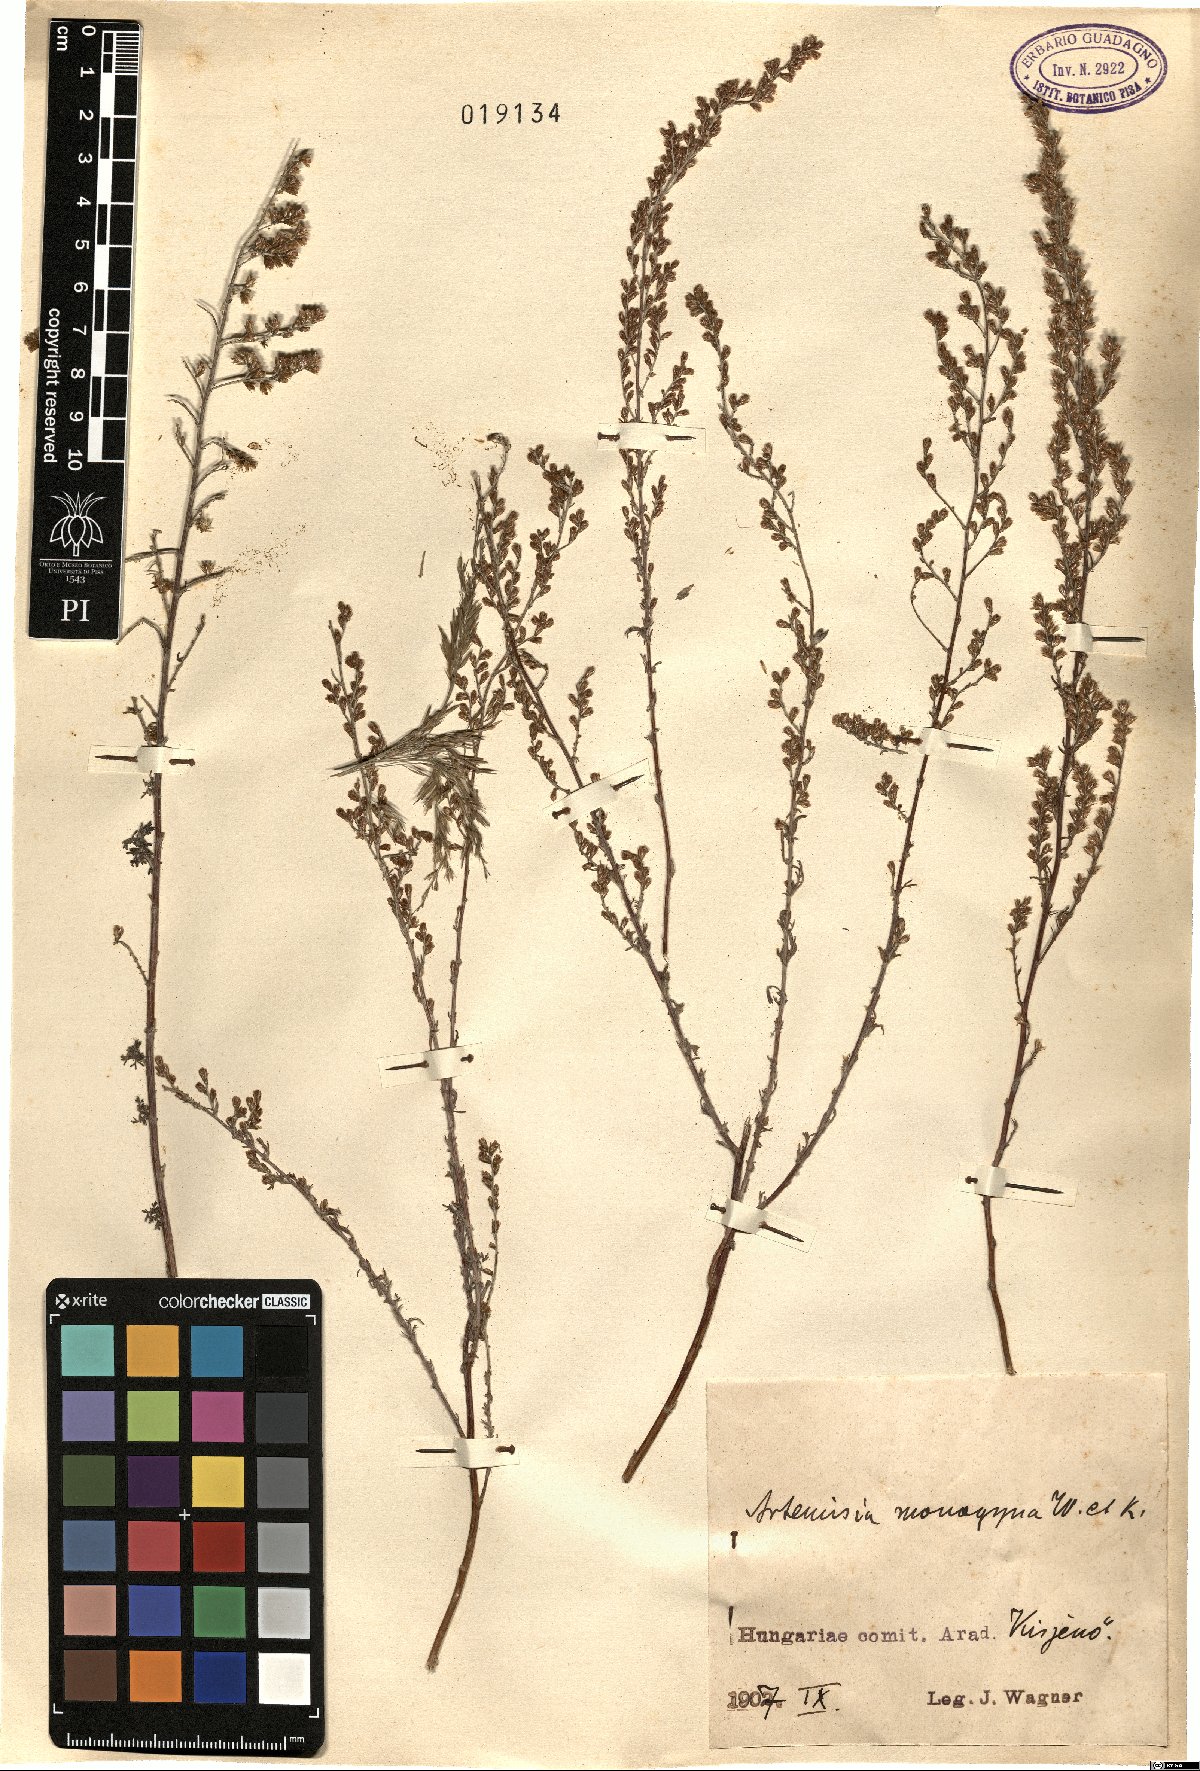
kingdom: Plantae
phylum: Tracheophyta
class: Magnoliopsida
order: Asterales
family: Asteraceae
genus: Artemisia
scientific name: Artemisia santonicum
